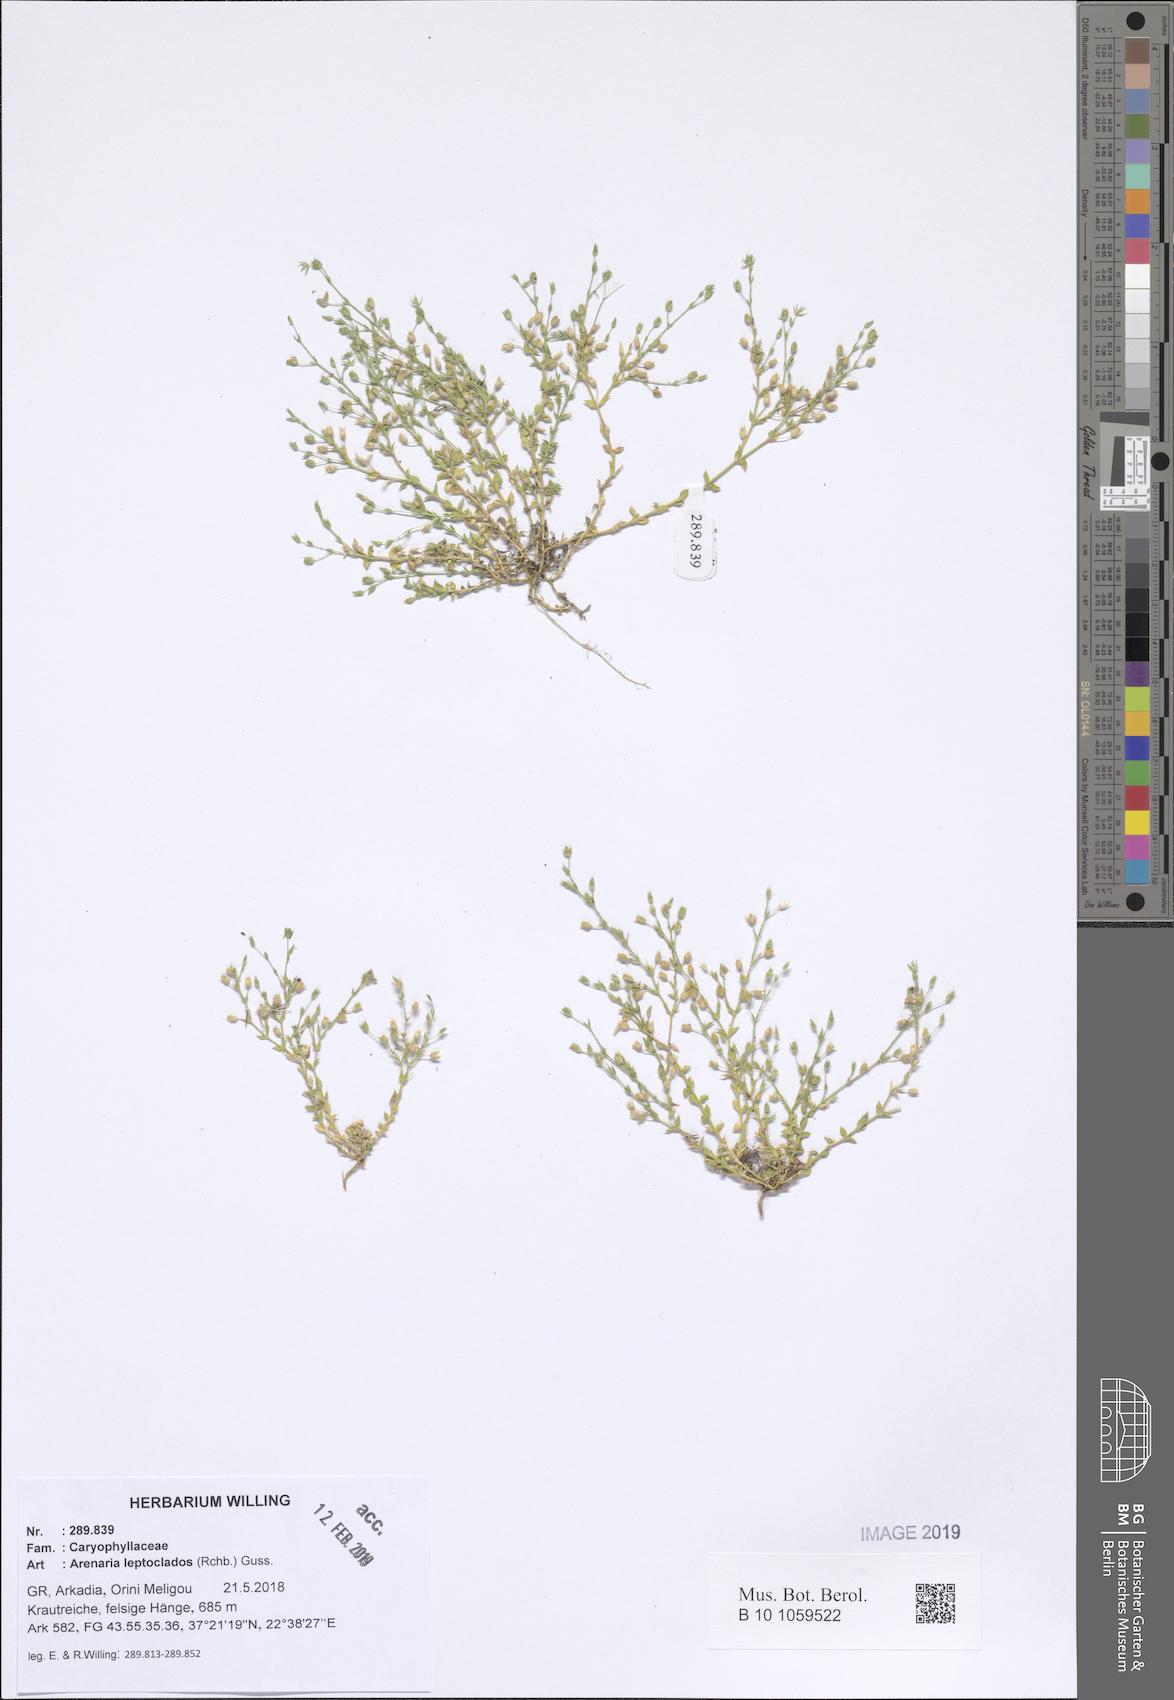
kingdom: Plantae
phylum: Tracheophyta
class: Magnoliopsida
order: Caryophyllales
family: Caryophyllaceae
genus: Arenaria
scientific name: Arenaria leptoclados
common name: Thyme-leaved sandwort
